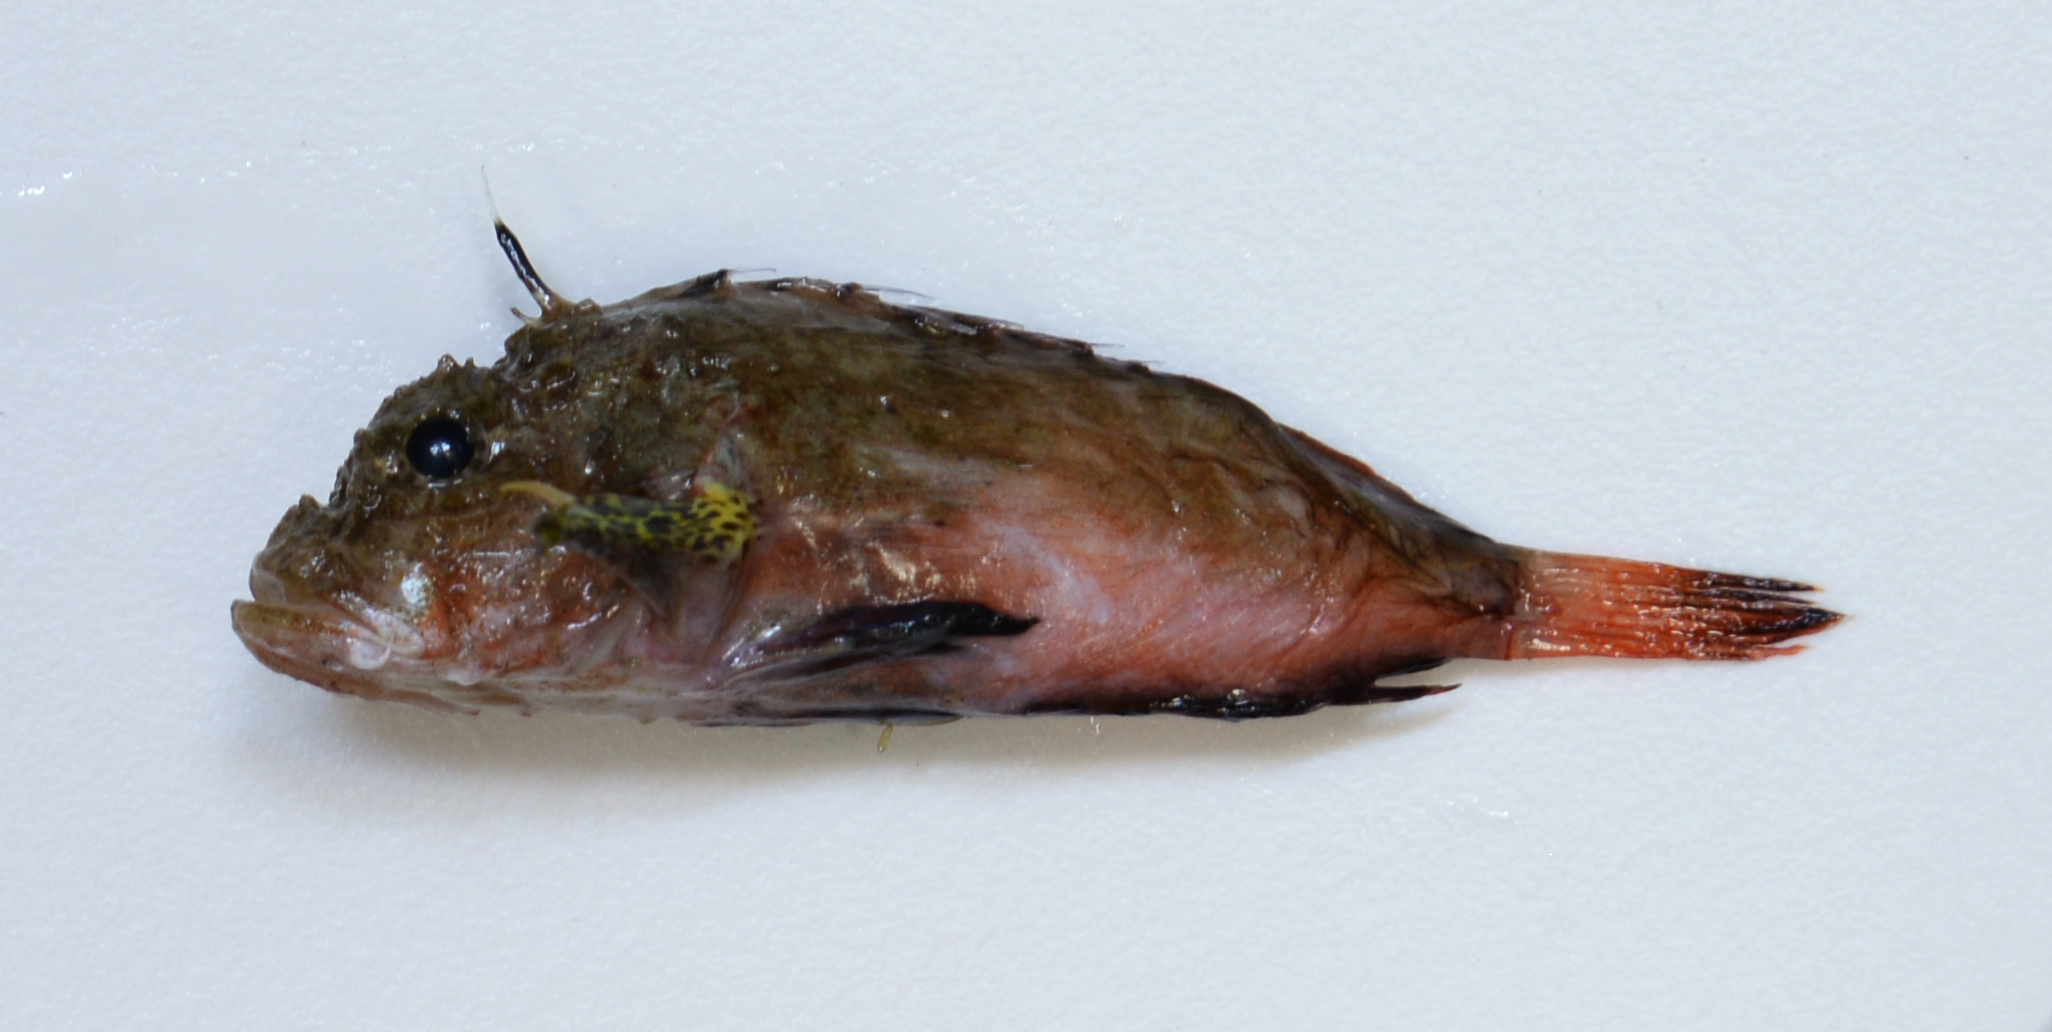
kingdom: Animalia
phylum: Chordata
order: Scorpaeniformes
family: Synanceiidae
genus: Minous
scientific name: Minous coccineus
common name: Onestick stingfish
